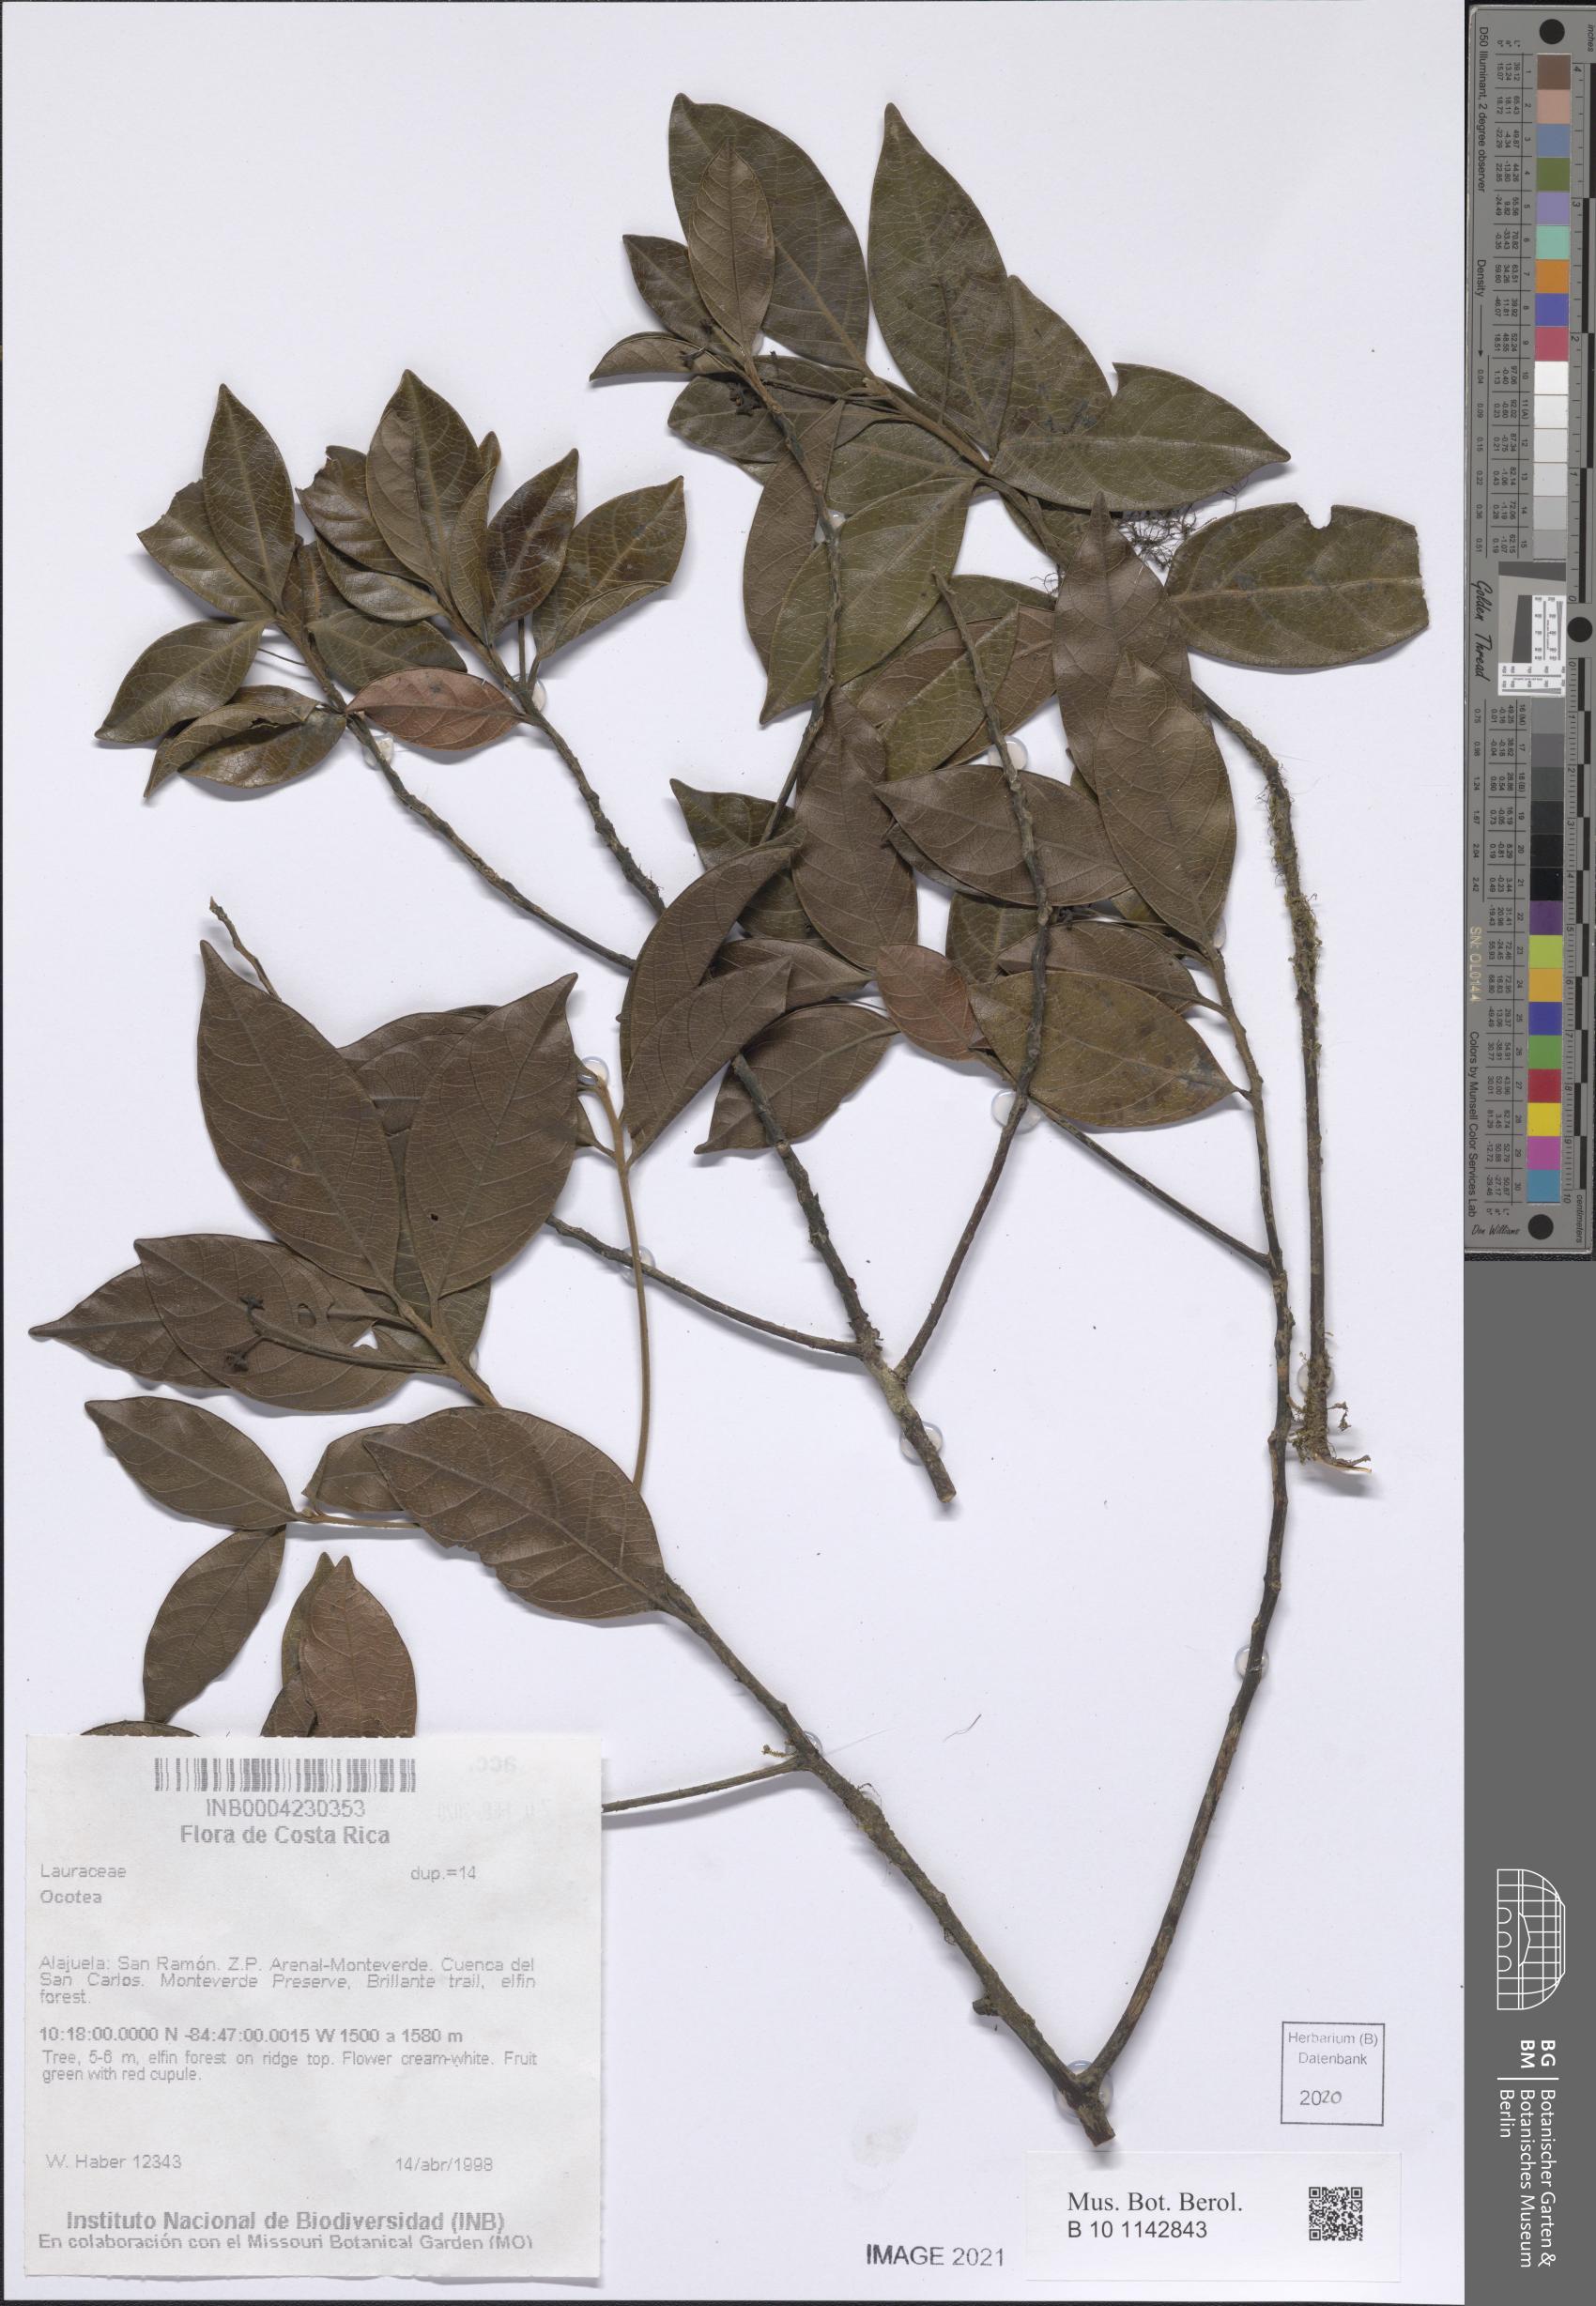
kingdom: Plantae
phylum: Tracheophyta
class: Magnoliopsida
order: Laurales
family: Lauraceae
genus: Ocotea
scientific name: Ocotea
